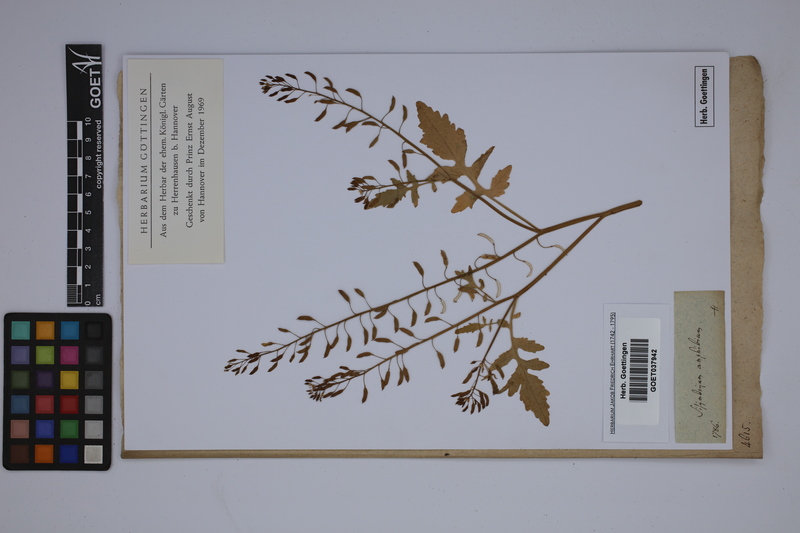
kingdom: Plantae
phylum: Tracheophyta
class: Magnoliopsida
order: Brassicales
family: Brassicaceae
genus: Rorippa
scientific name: Rorippa amphibia
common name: Great yellow-cress
